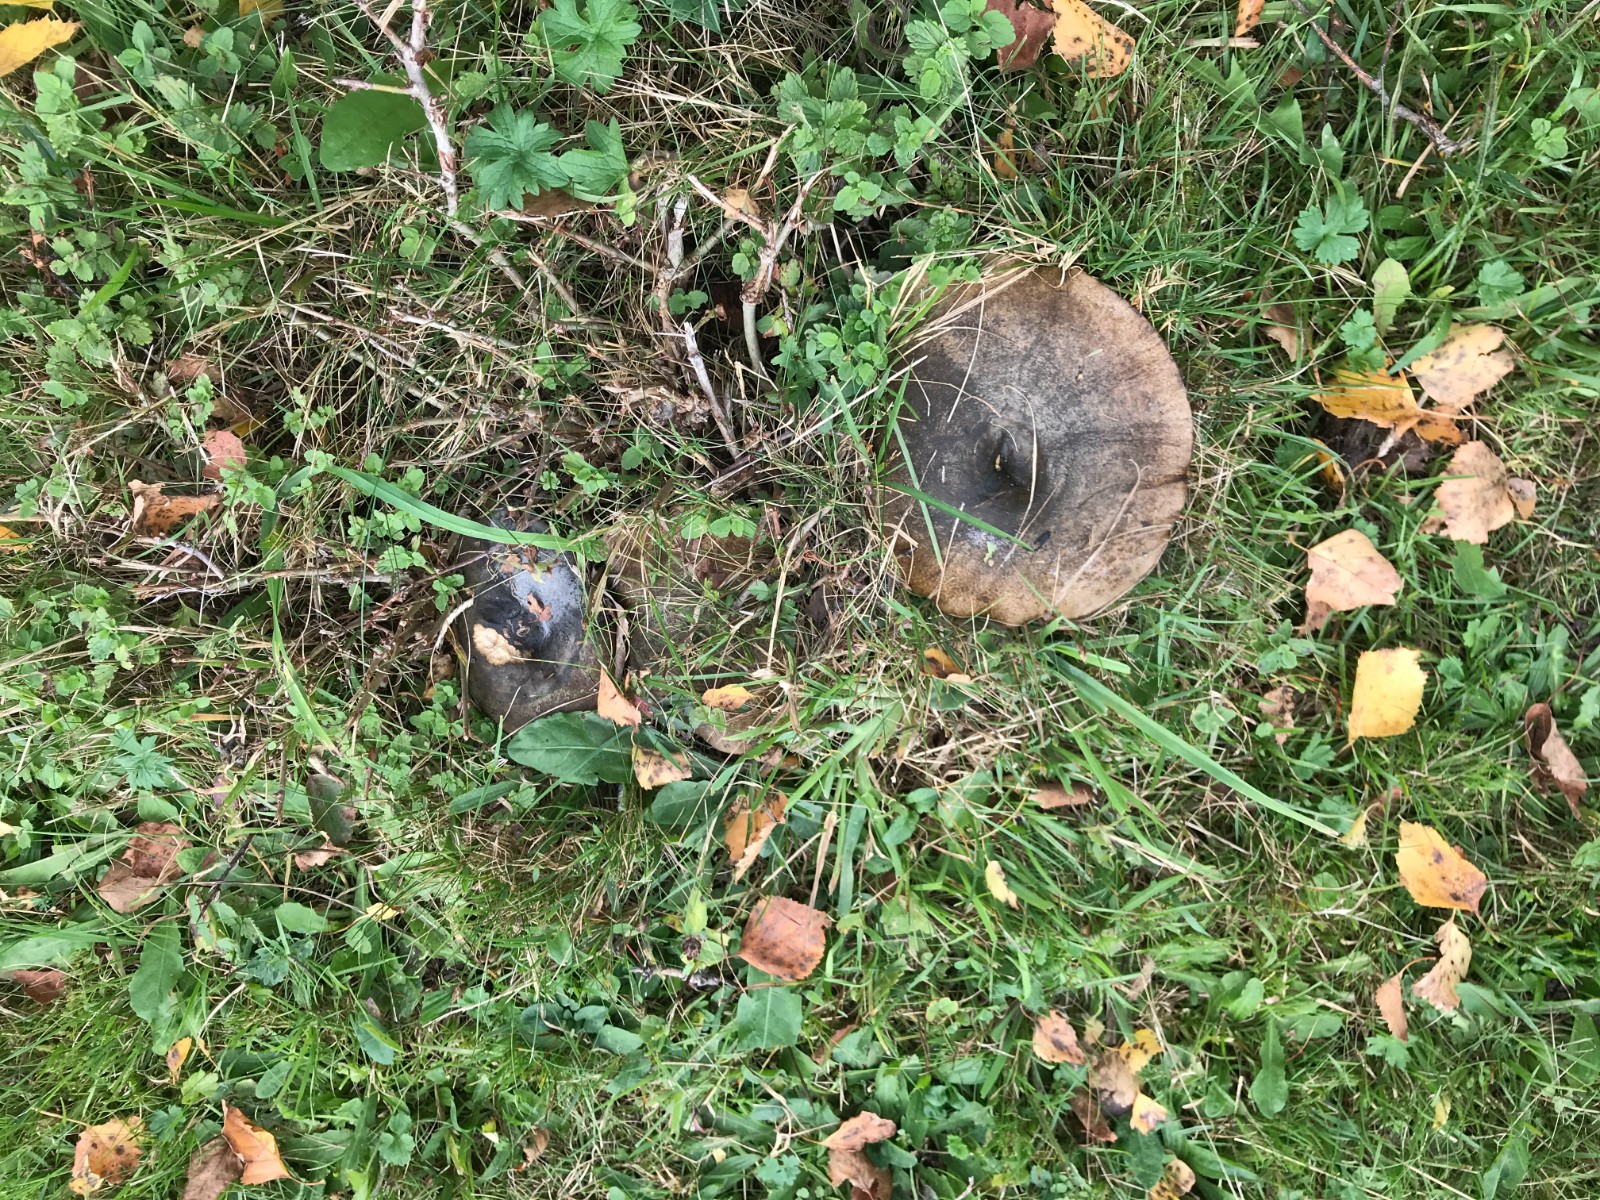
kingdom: Fungi
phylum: Basidiomycota
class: Agaricomycetes
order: Russulales
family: Russulaceae
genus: Lactarius
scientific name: Lactarius necator
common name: manddraber-mælkehat
